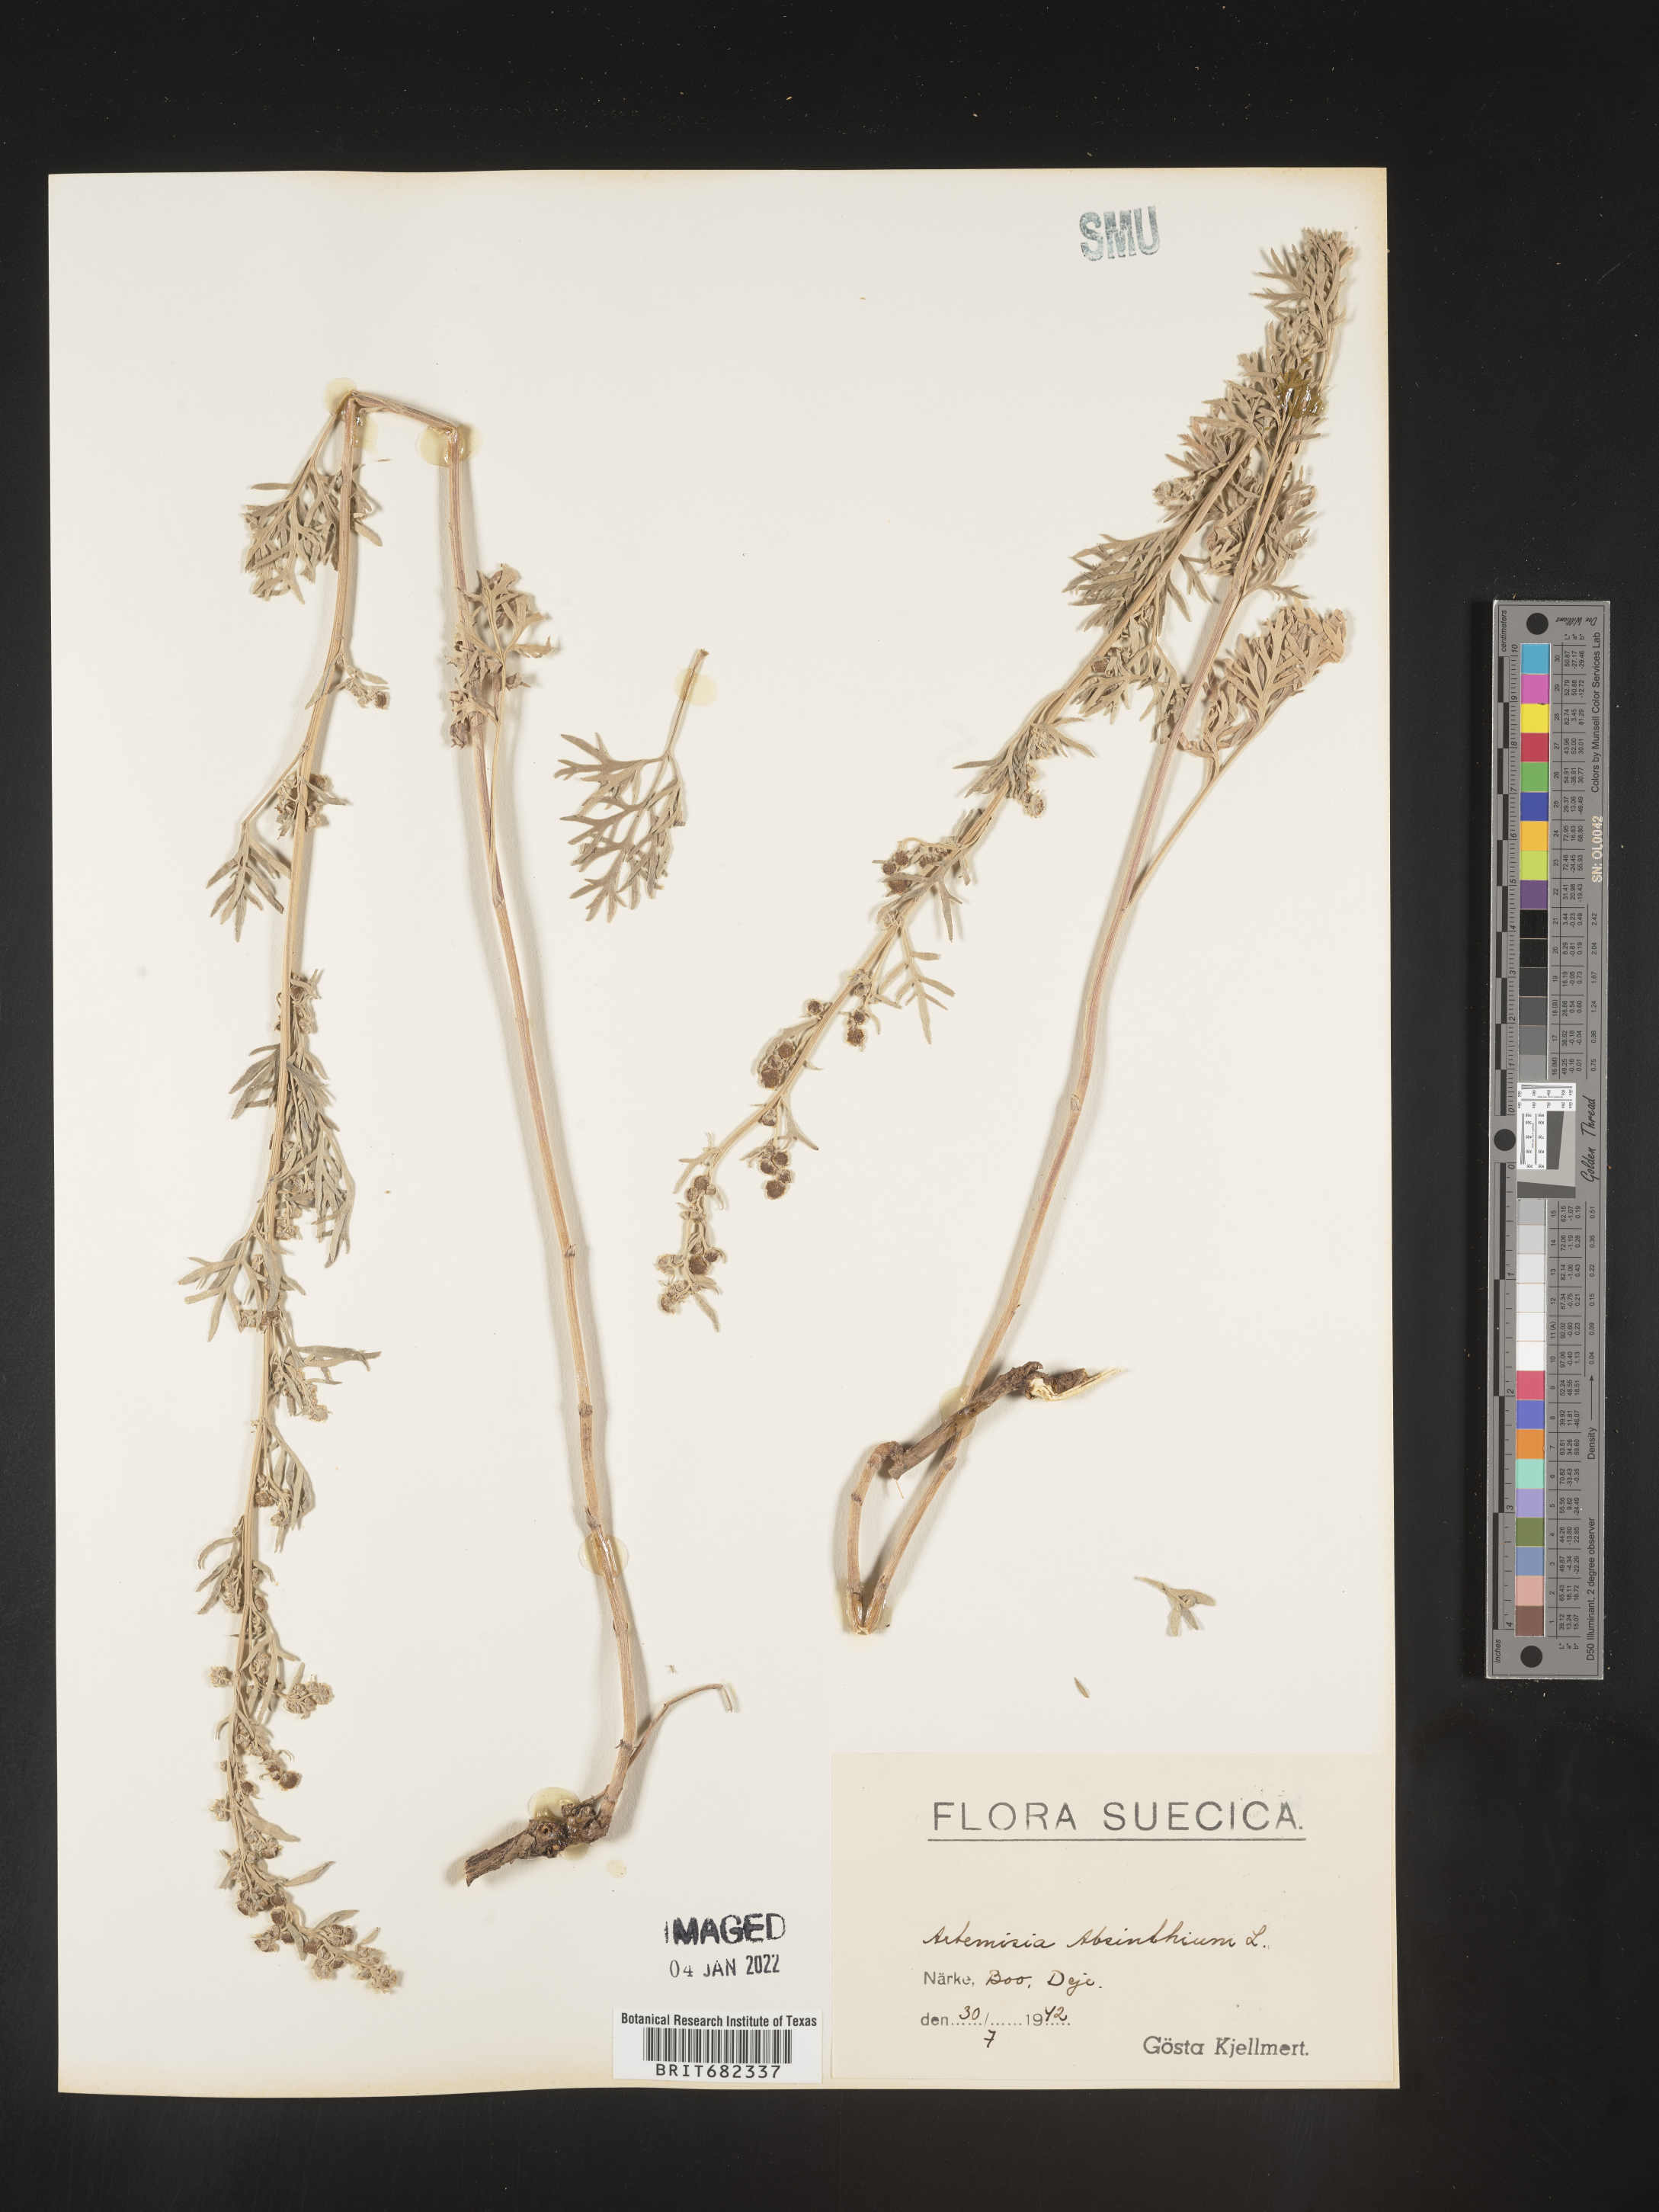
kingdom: Plantae
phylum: Tracheophyta
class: Magnoliopsida
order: Asterales
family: Asteraceae
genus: Artemisia
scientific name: Artemisia
